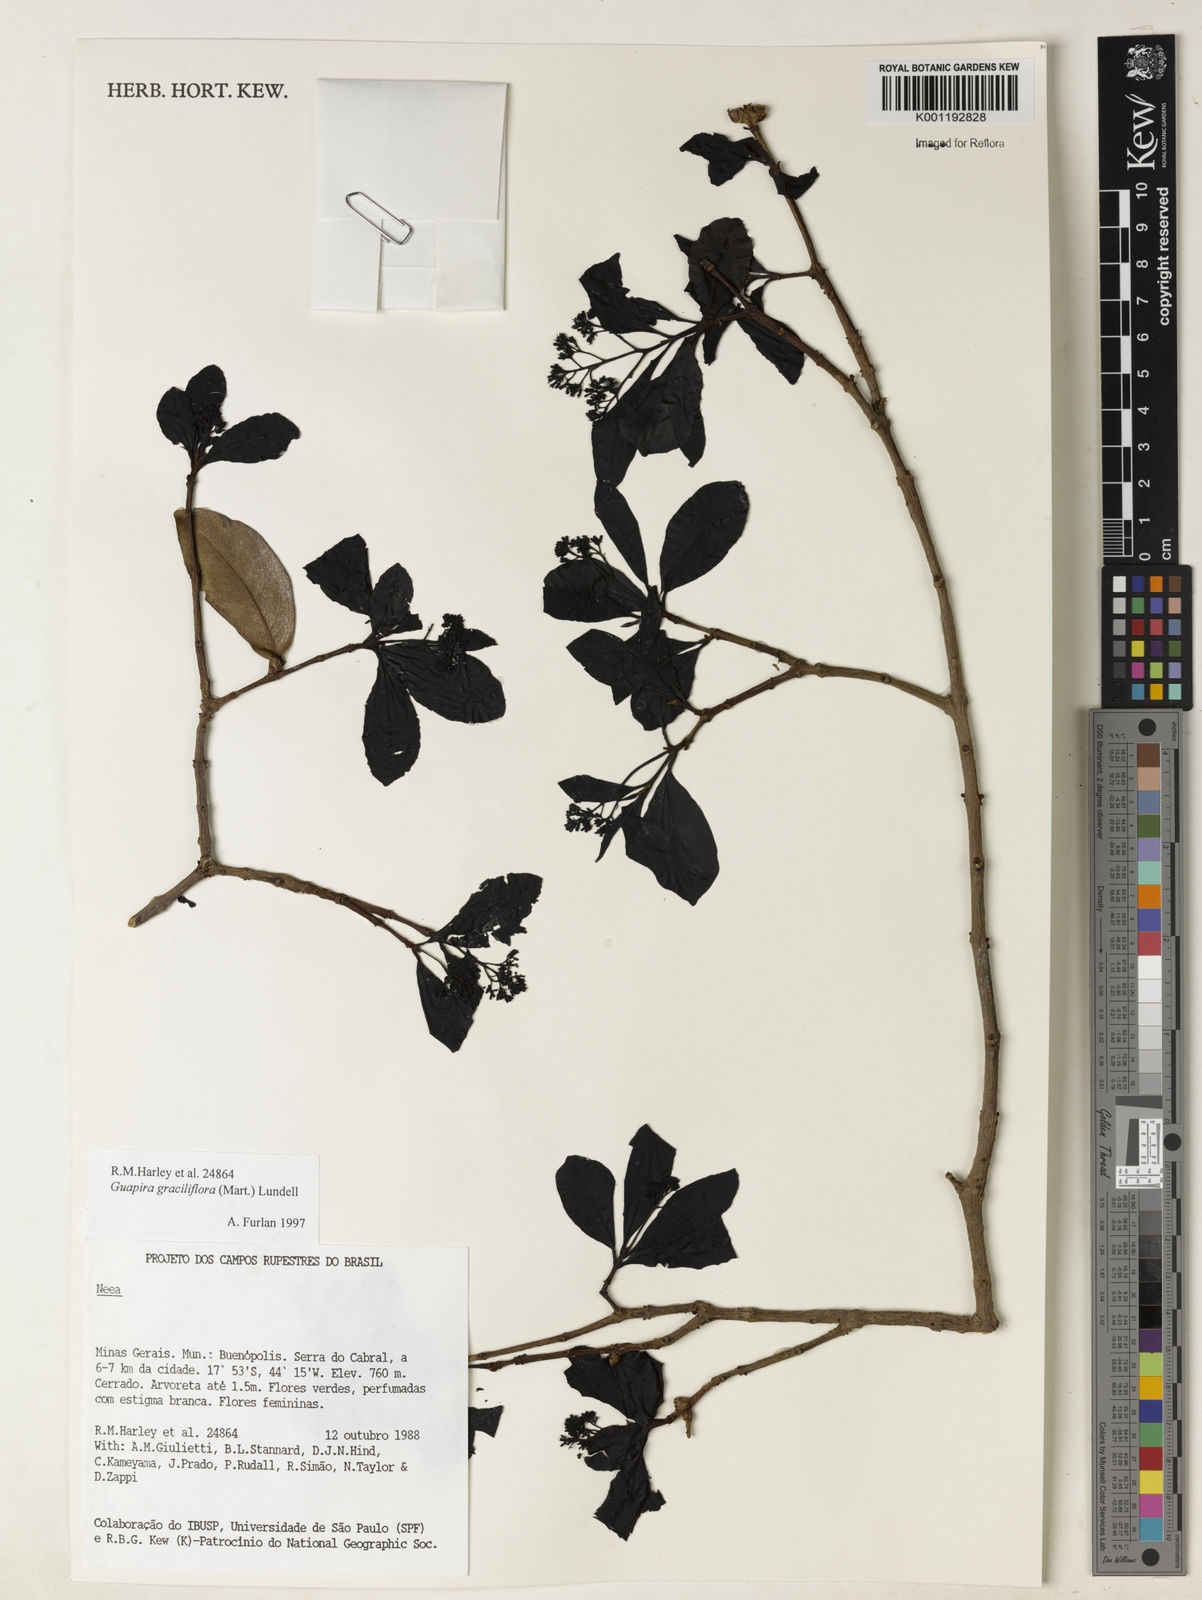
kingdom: Plantae
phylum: Tracheophyta
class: Magnoliopsida
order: Caryophyllales
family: Nyctaginaceae
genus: Guapira
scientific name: Guapira graciliflora
